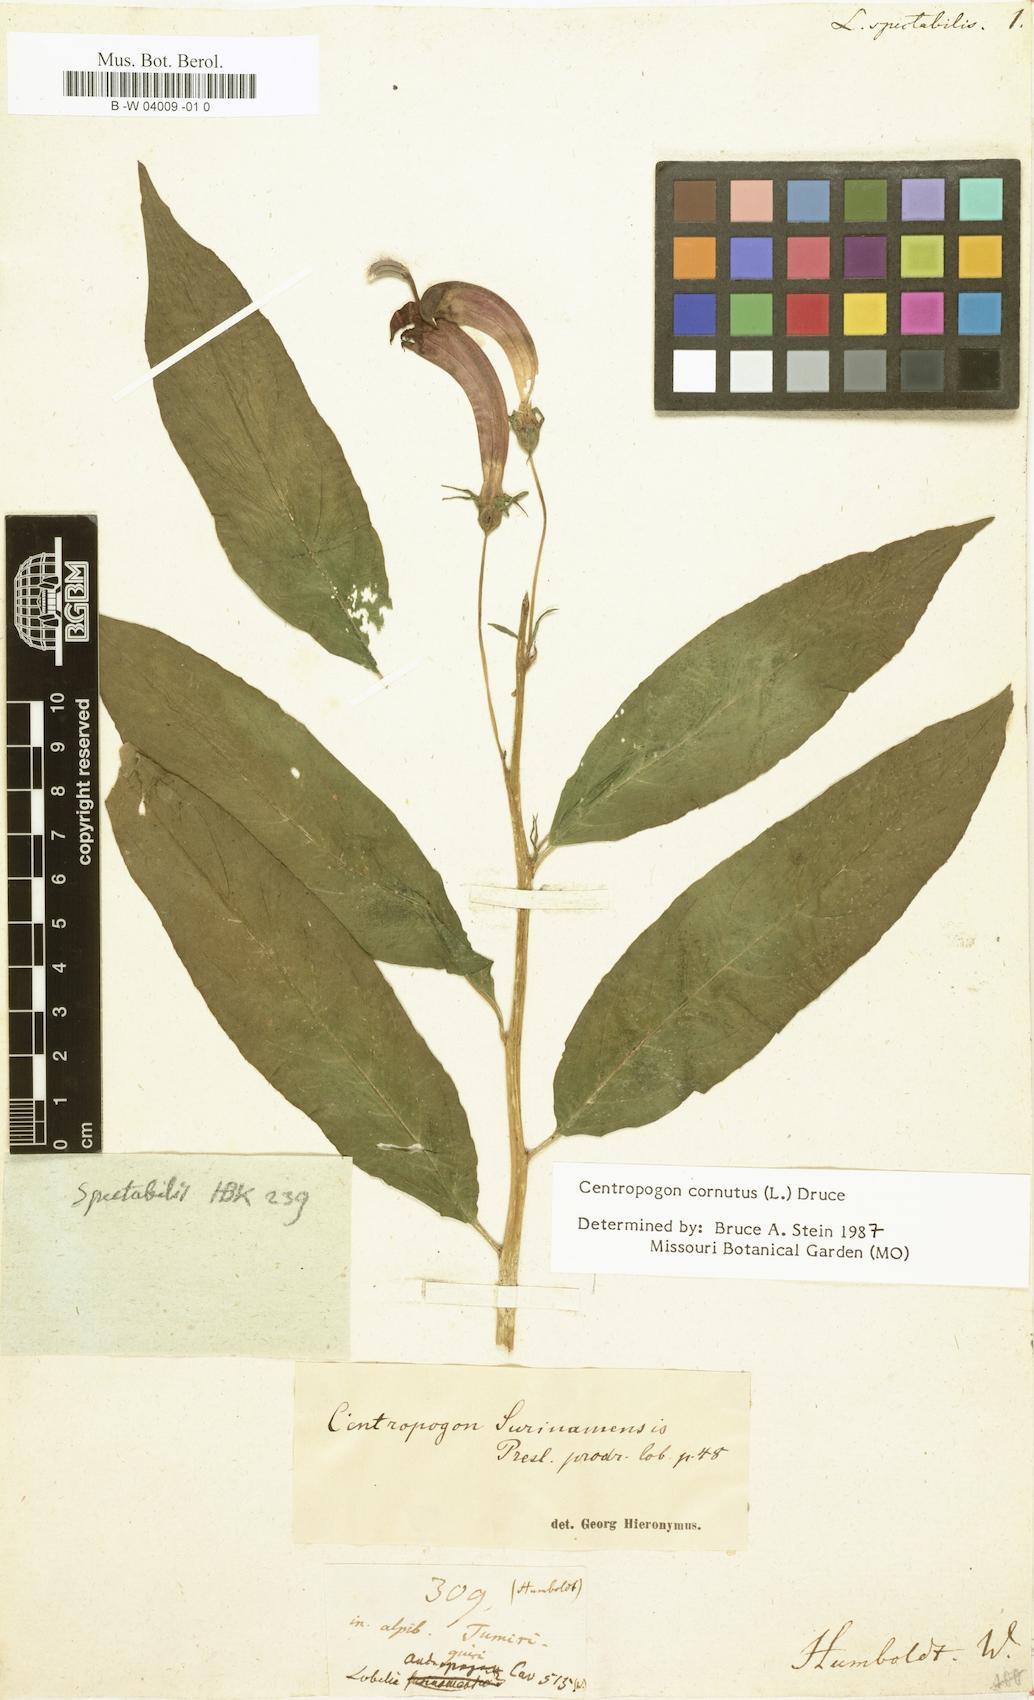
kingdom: Plantae
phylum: Tracheophyta
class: Magnoliopsida
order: Asterales
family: Campanulaceae
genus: Centropogon
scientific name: Centropogon cornutus
